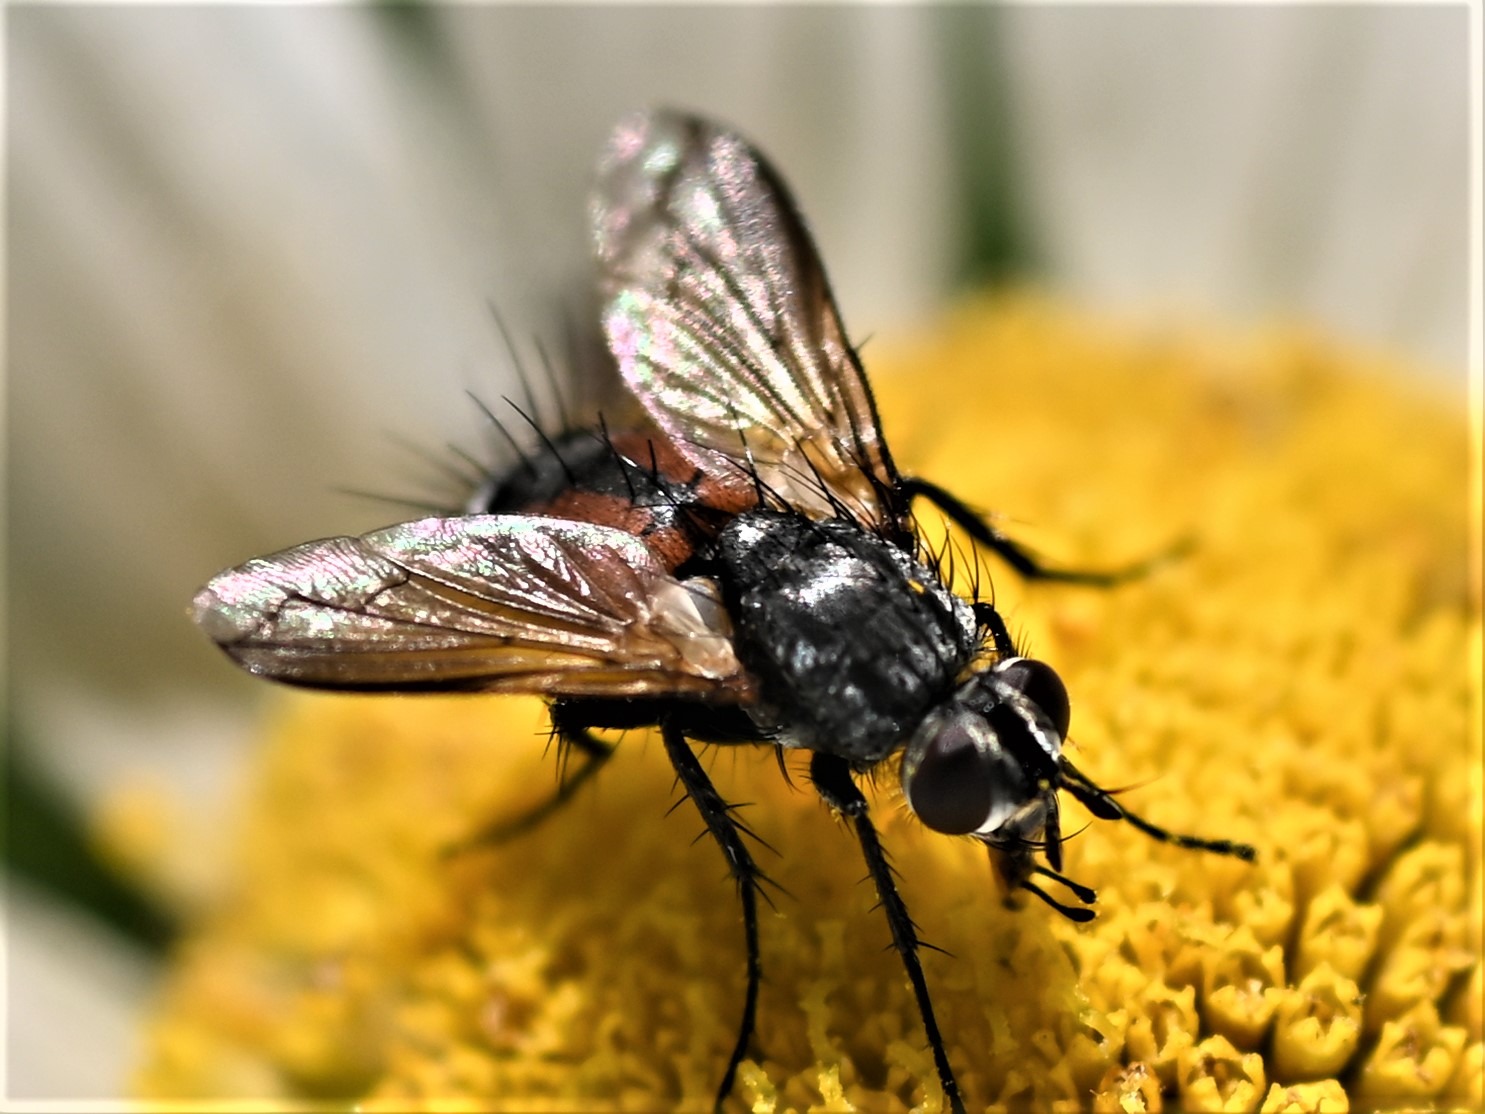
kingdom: Animalia
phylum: Arthropoda
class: Insecta
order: Diptera
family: Tachinidae
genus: Eriothrix
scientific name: Eriothrix rufomaculatus
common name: Rød snylteflue
